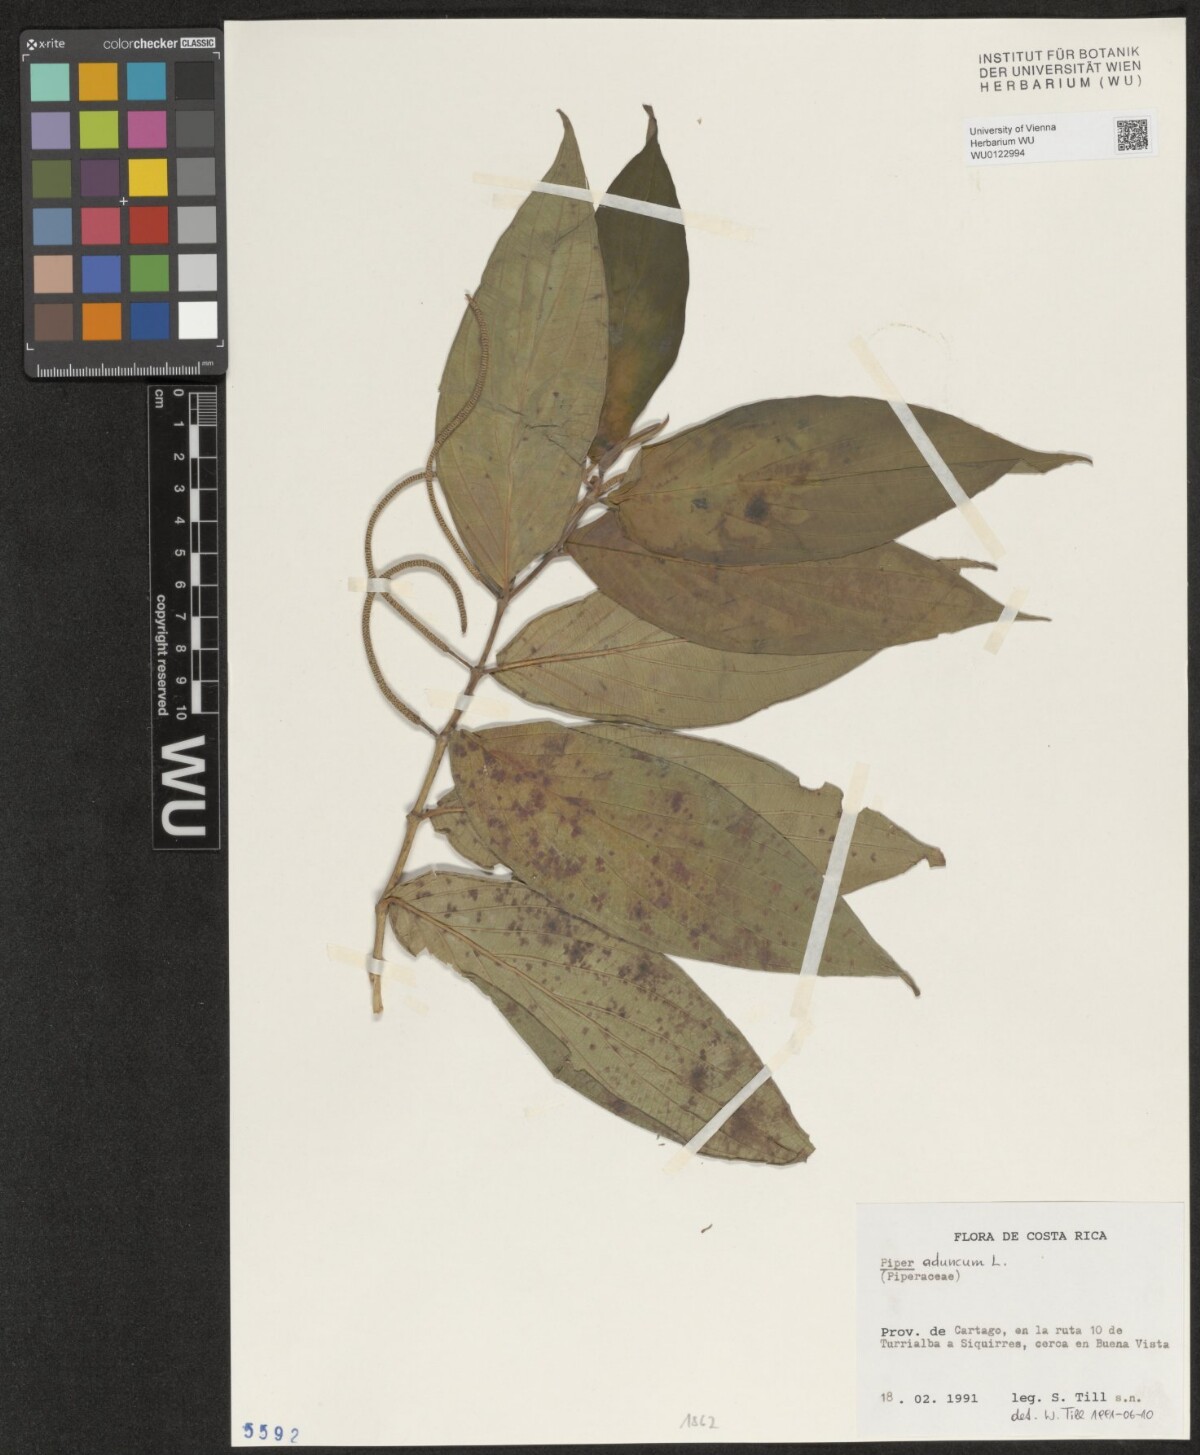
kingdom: Plantae
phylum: Tracheophyta
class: Magnoliopsida
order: Piperales
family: Piperaceae
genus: Piper
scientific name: Piper aduncum
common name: Spiked pepper
